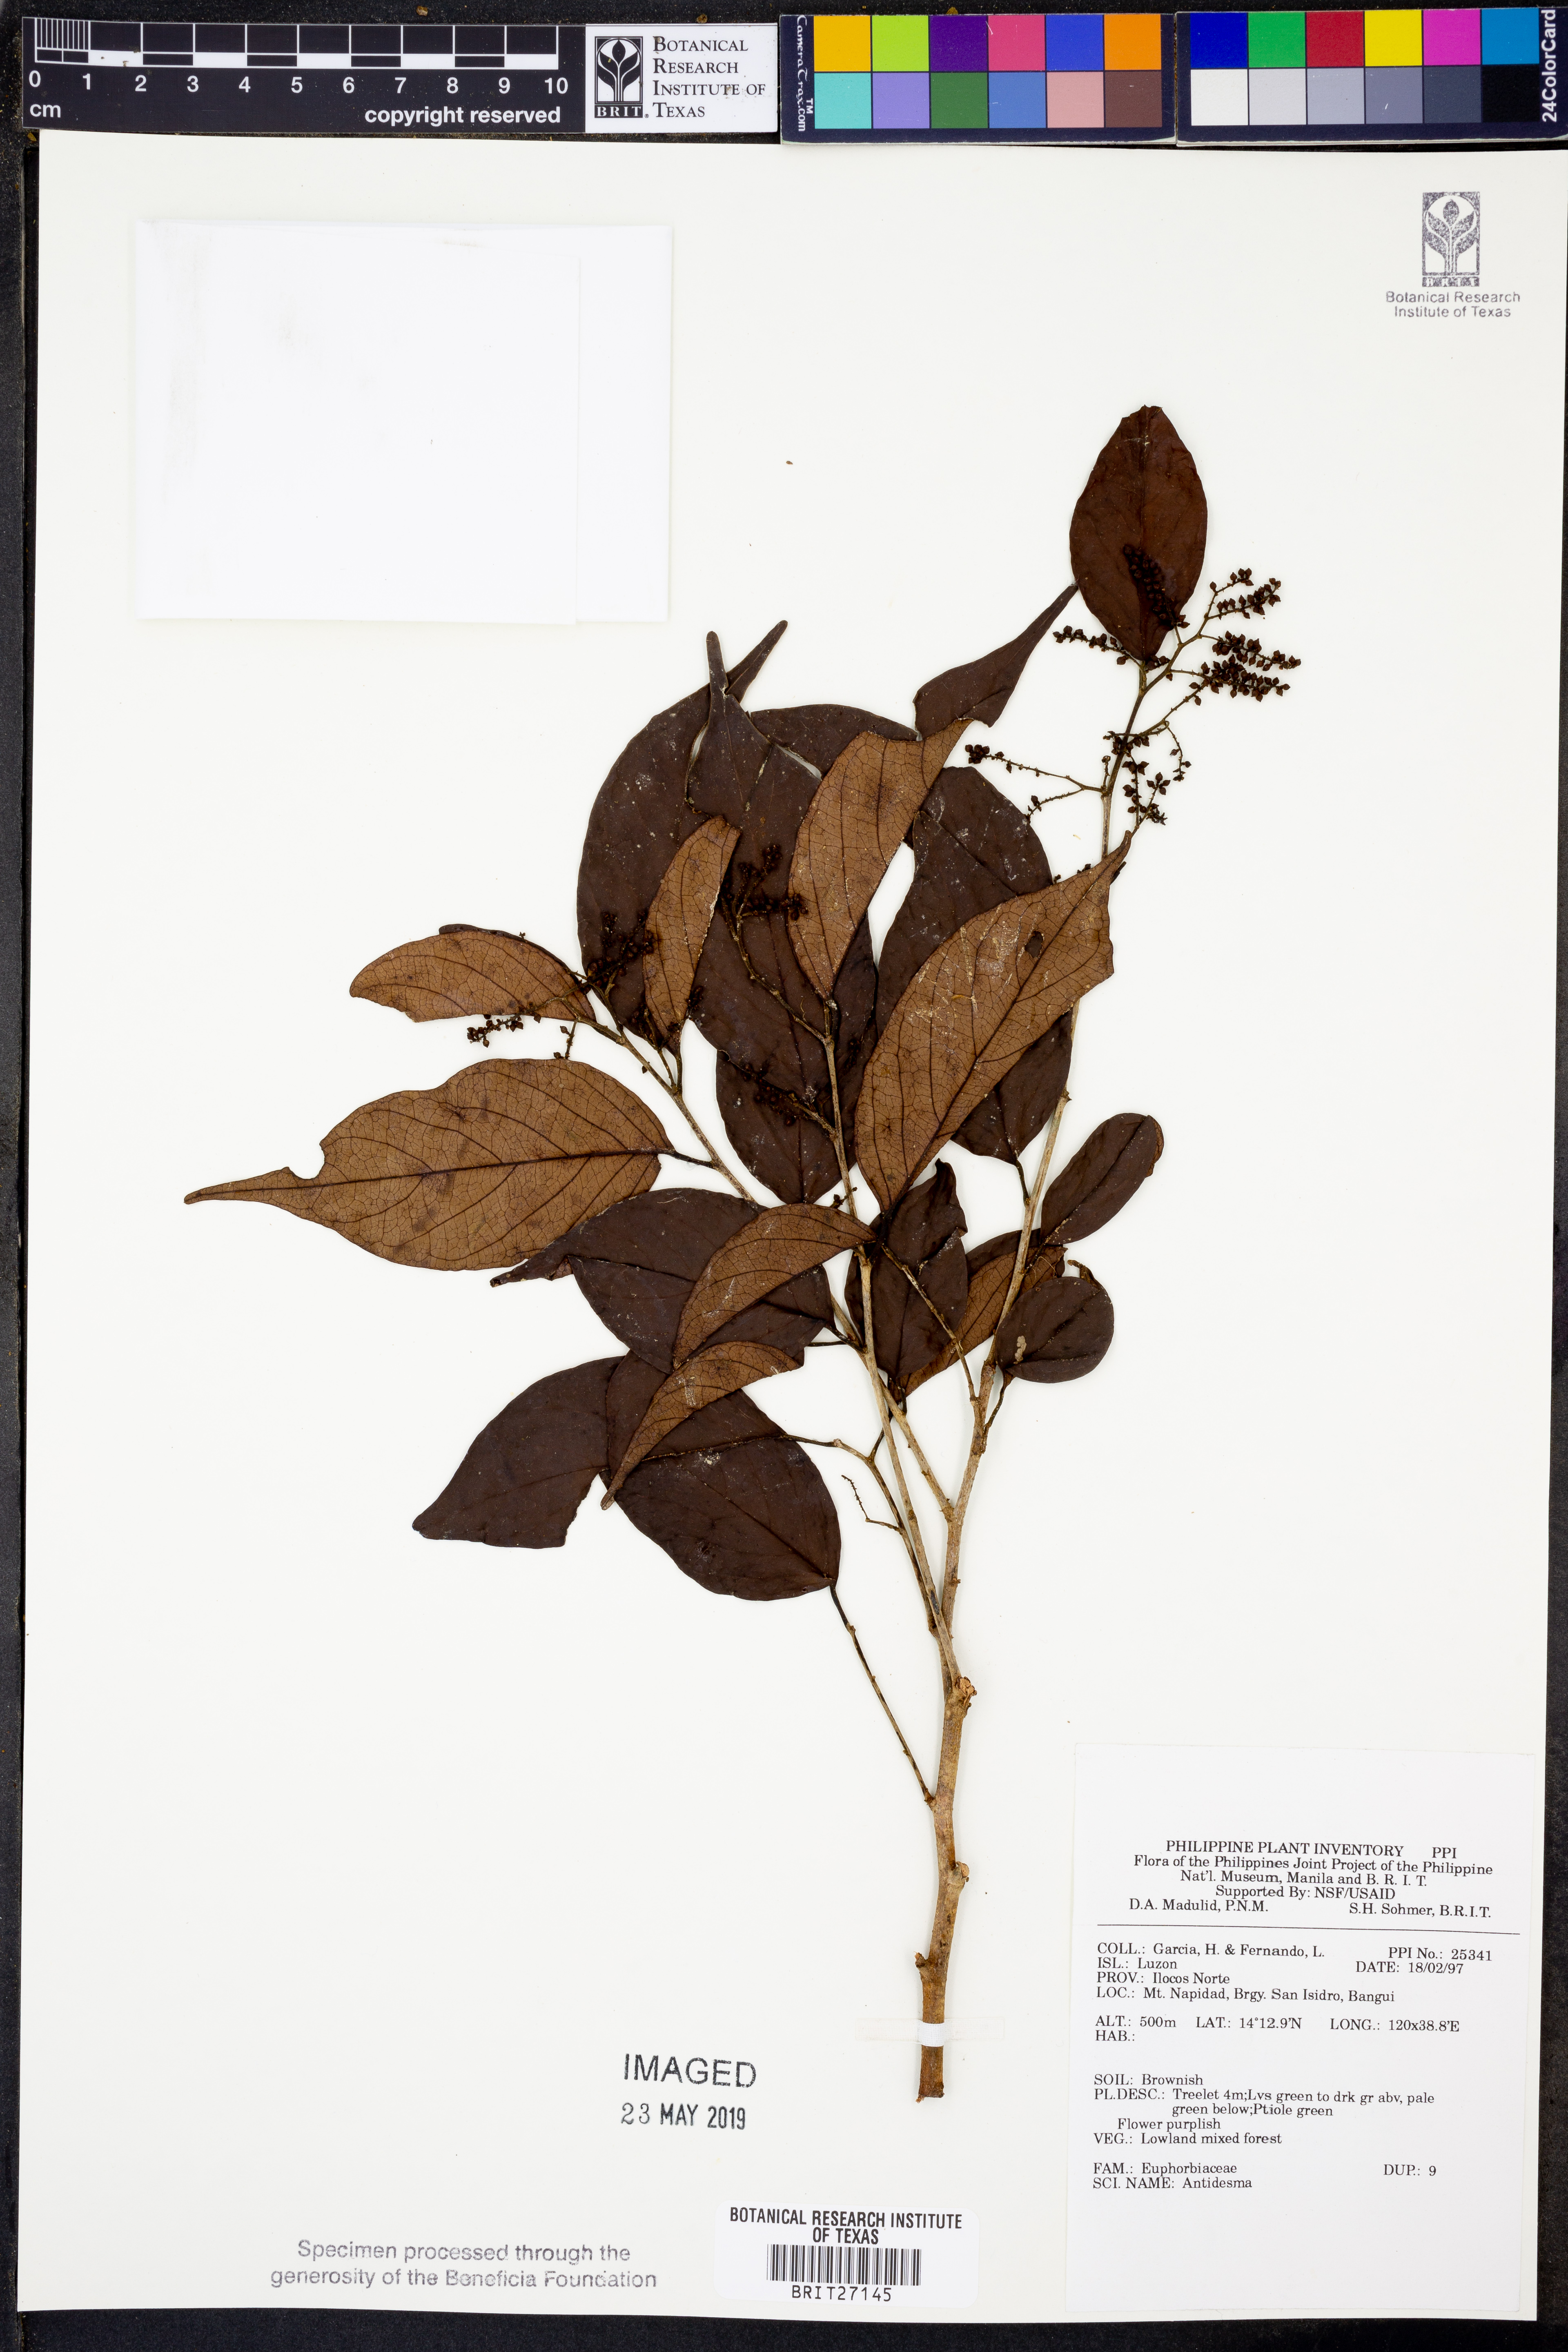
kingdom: Plantae
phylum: Tracheophyta
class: Magnoliopsida
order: Malpighiales
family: Phyllanthaceae
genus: Antidesma
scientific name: Antidesma
